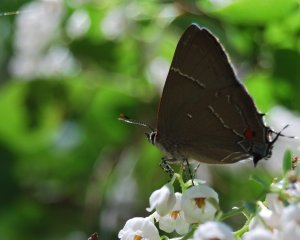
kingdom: Animalia
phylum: Arthropoda
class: Insecta
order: Lepidoptera
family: Lycaenidae
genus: Parrhasius
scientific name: Parrhasius m-album
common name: White-m Hairstreak
